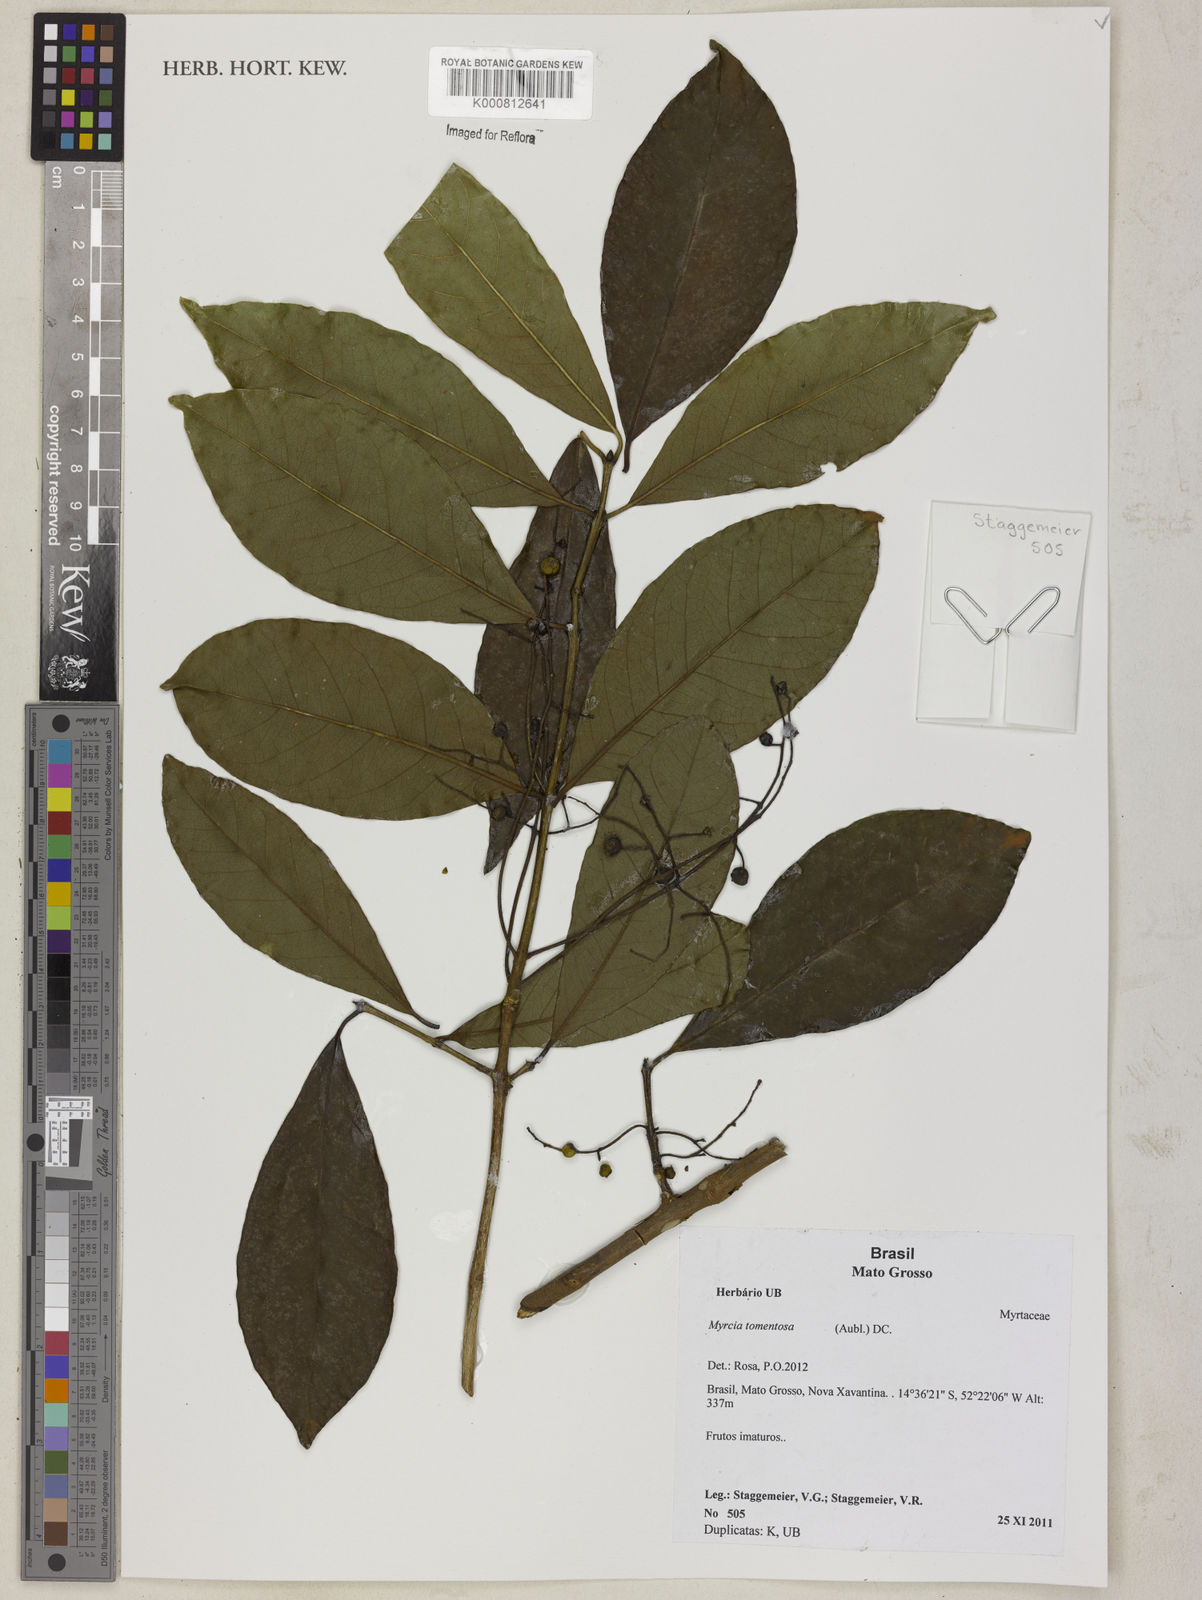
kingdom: Plantae
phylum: Tracheophyta
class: Magnoliopsida
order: Myrtales
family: Myrtaceae
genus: Myrcia
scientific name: Myrcia tomentosa
